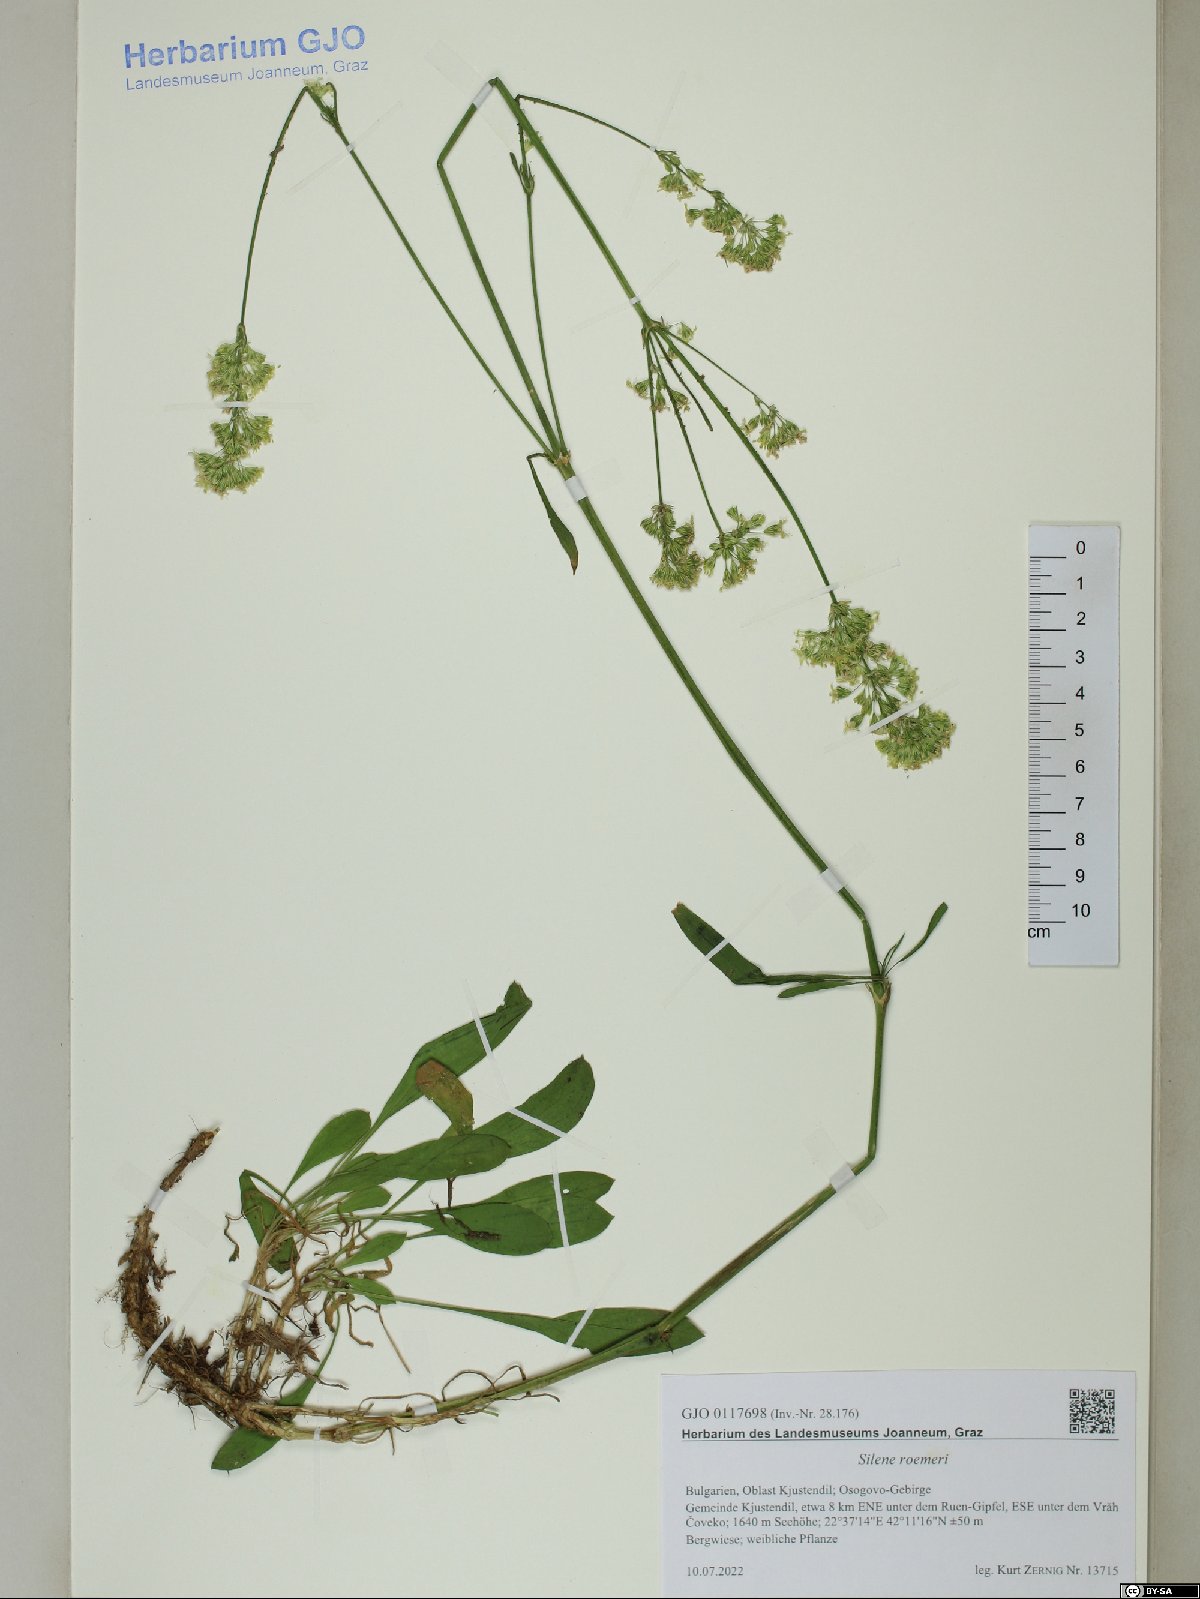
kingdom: Plantae
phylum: Tracheophyta
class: Magnoliopsida
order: Caryophyllales
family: Caryophyllaceae
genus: Silene
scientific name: Silene roemeri
